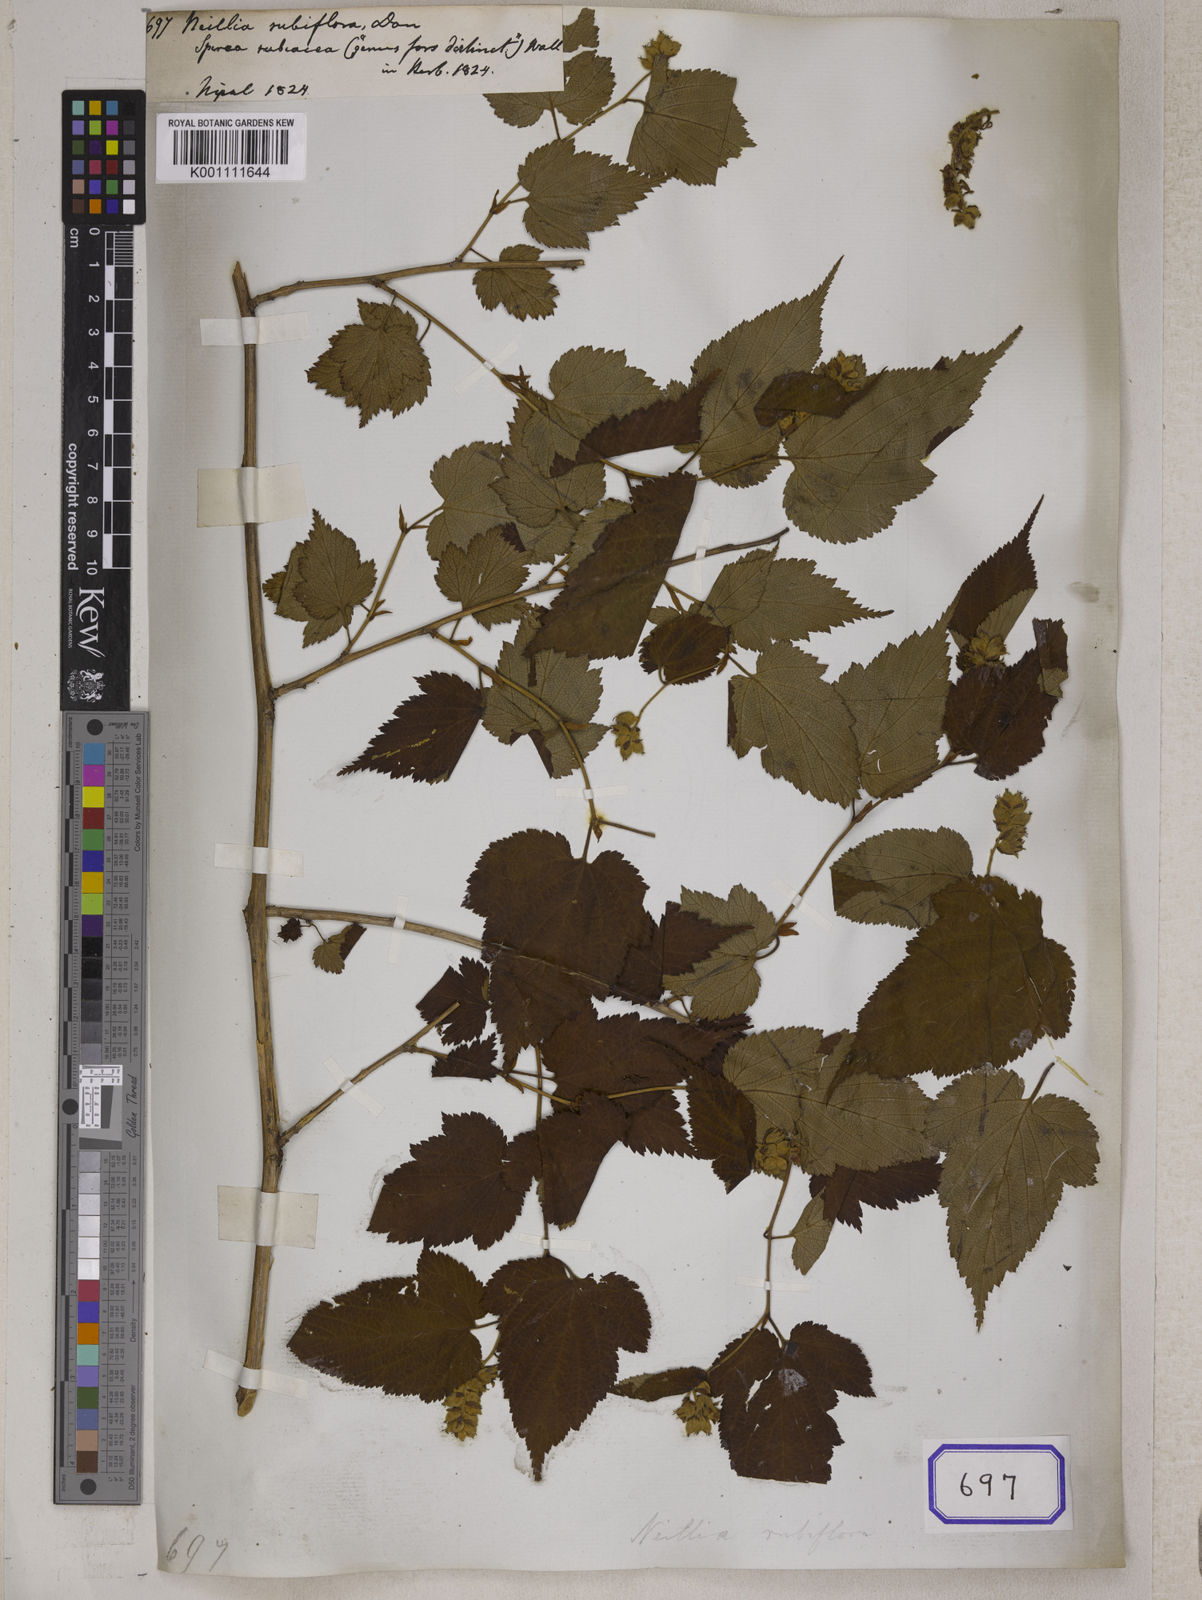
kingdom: Plantae
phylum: Tracheophyta
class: Magnoliopsida
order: Rosales
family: Rosaceae
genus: Neillia
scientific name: Neillia rubiflora
